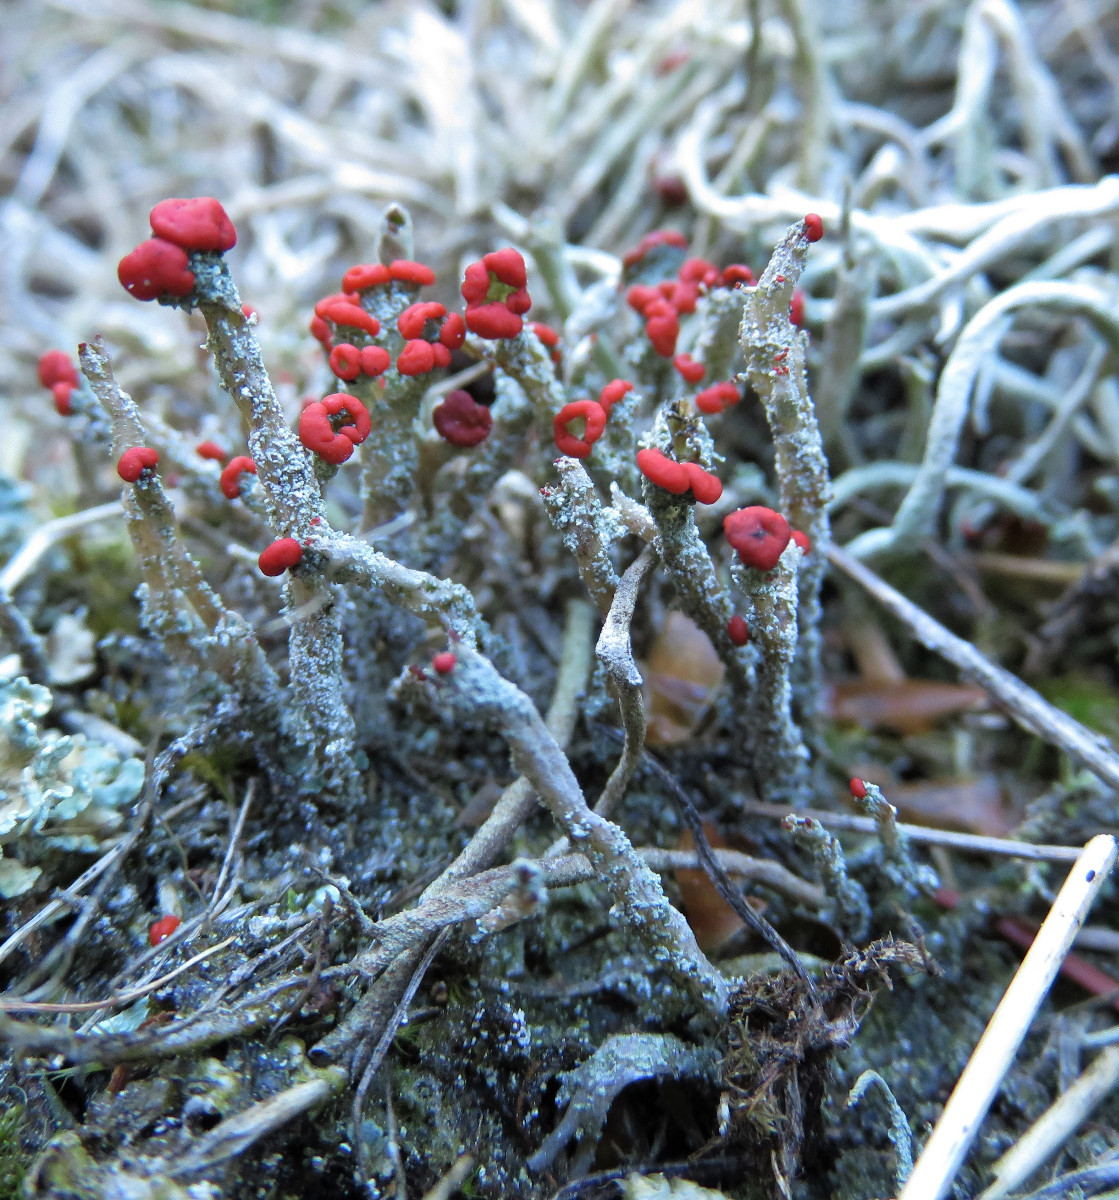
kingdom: Fungi
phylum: Ascomycota
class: Lecanoromycetes
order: Lecanorales
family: Cladoniaceae
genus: Cladonia
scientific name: Cladonia floerkeana
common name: lakrød bægerlav
